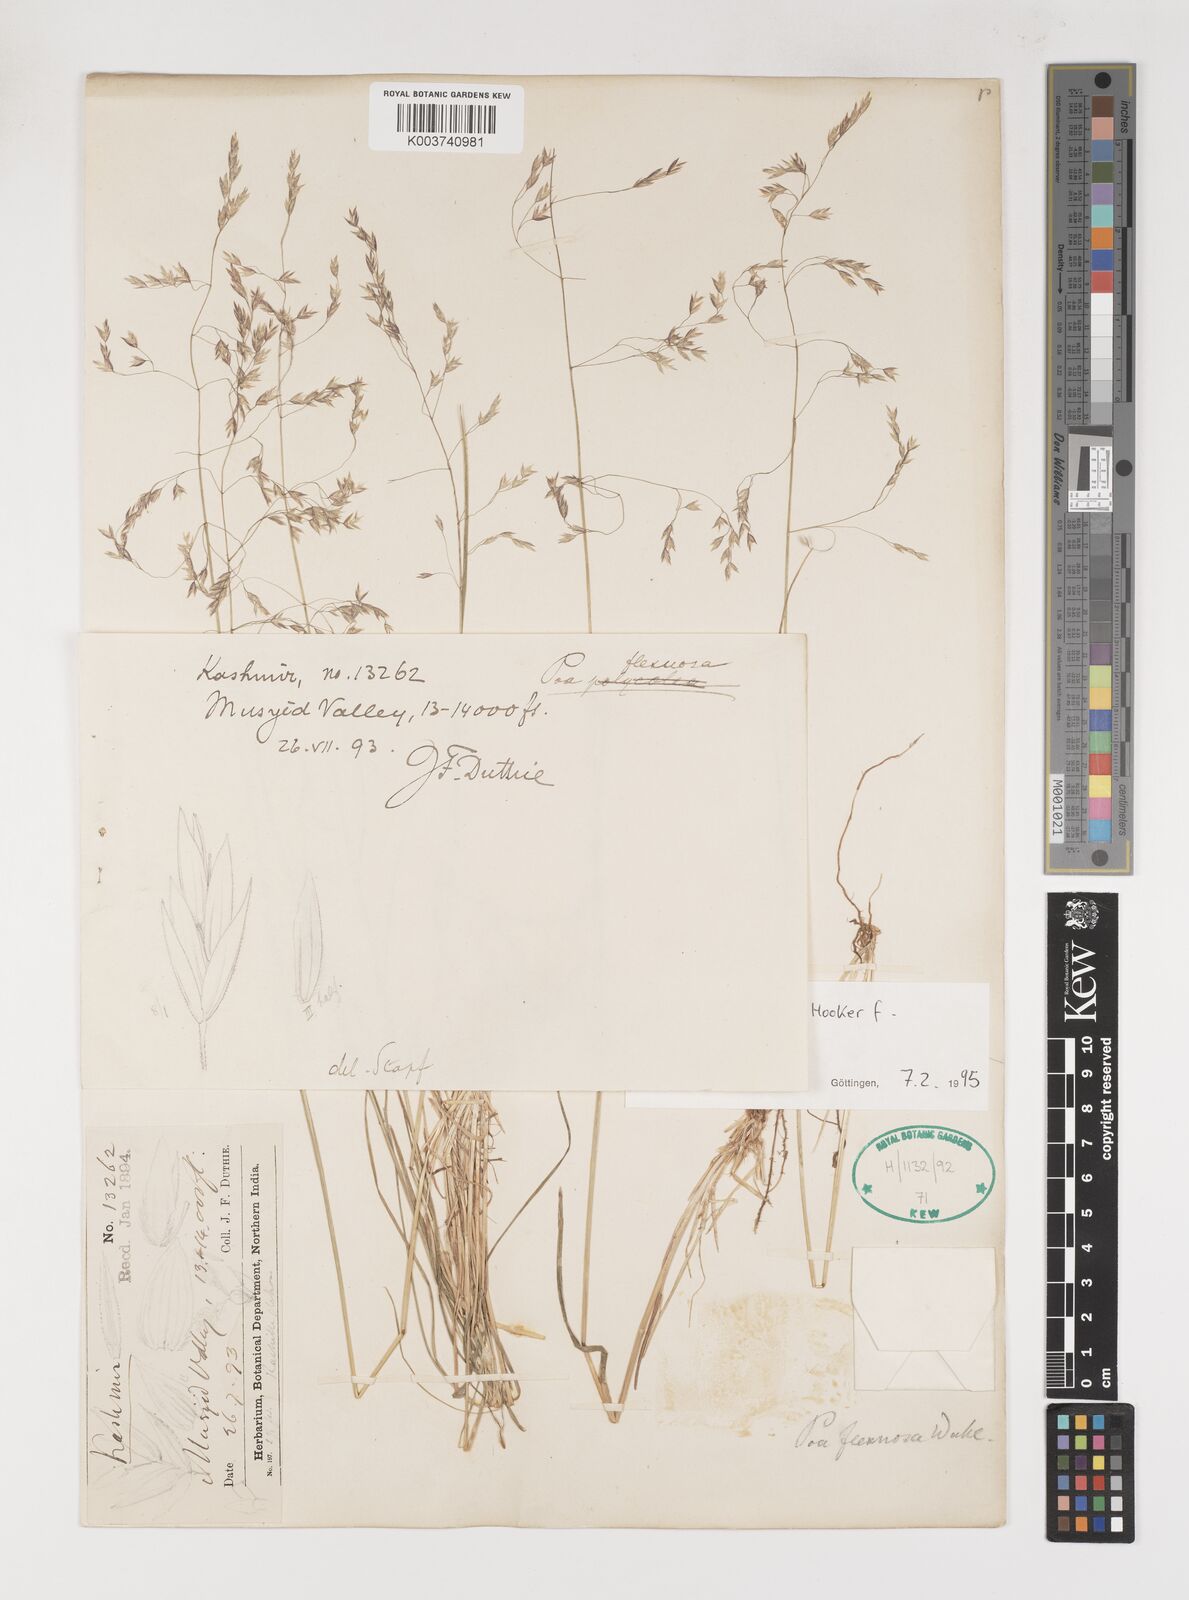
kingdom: Plantae
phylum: Tracheophyta
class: Liliopsida
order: Poales
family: Poaceae
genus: Poa
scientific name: Poa falconeri
